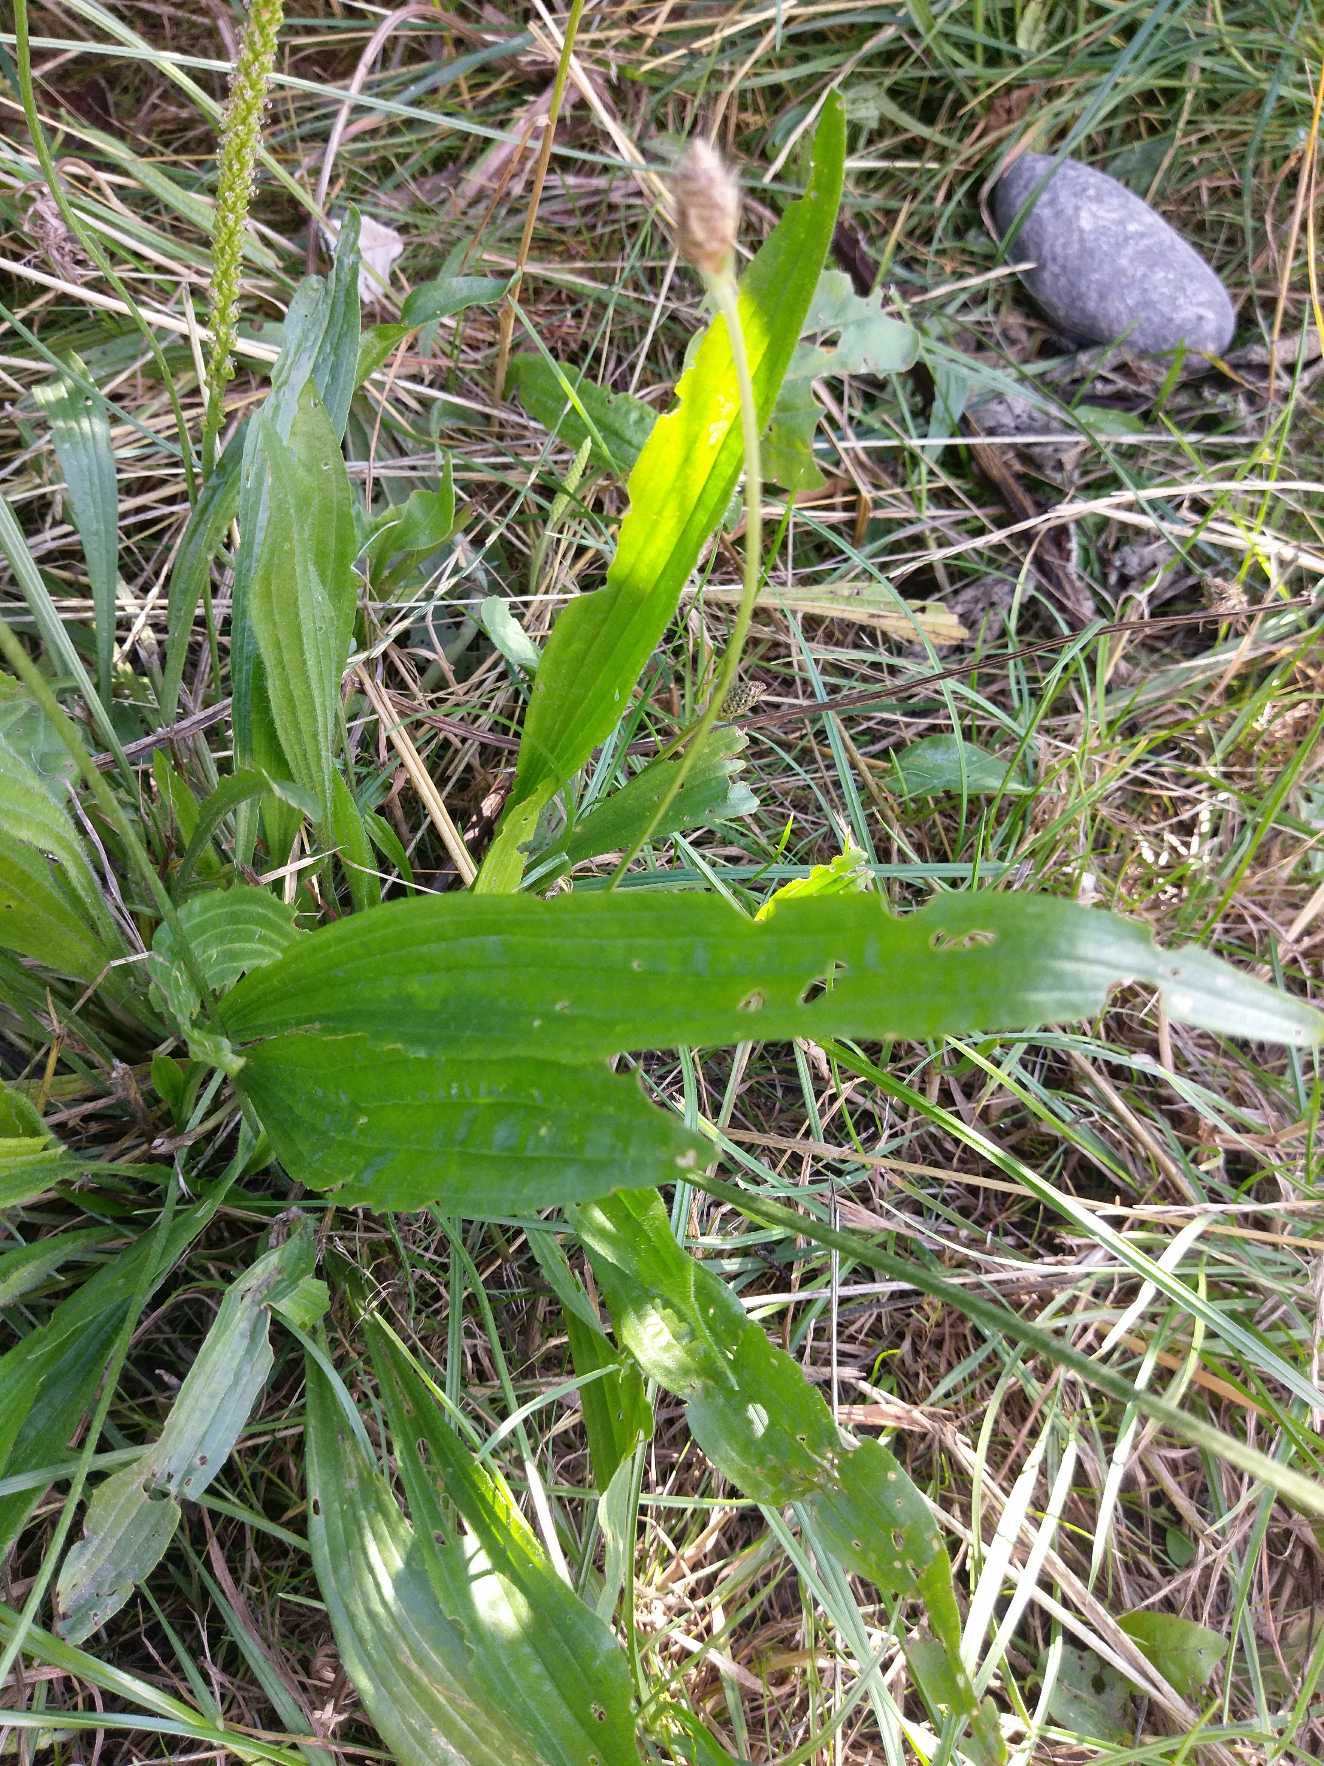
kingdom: Plantae
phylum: Tracheophyta
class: Magnoliopsida
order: Lamiales
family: Plantaginaceae
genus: Plantago
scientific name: Plantago lanceolata
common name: Lancet-vejbred
